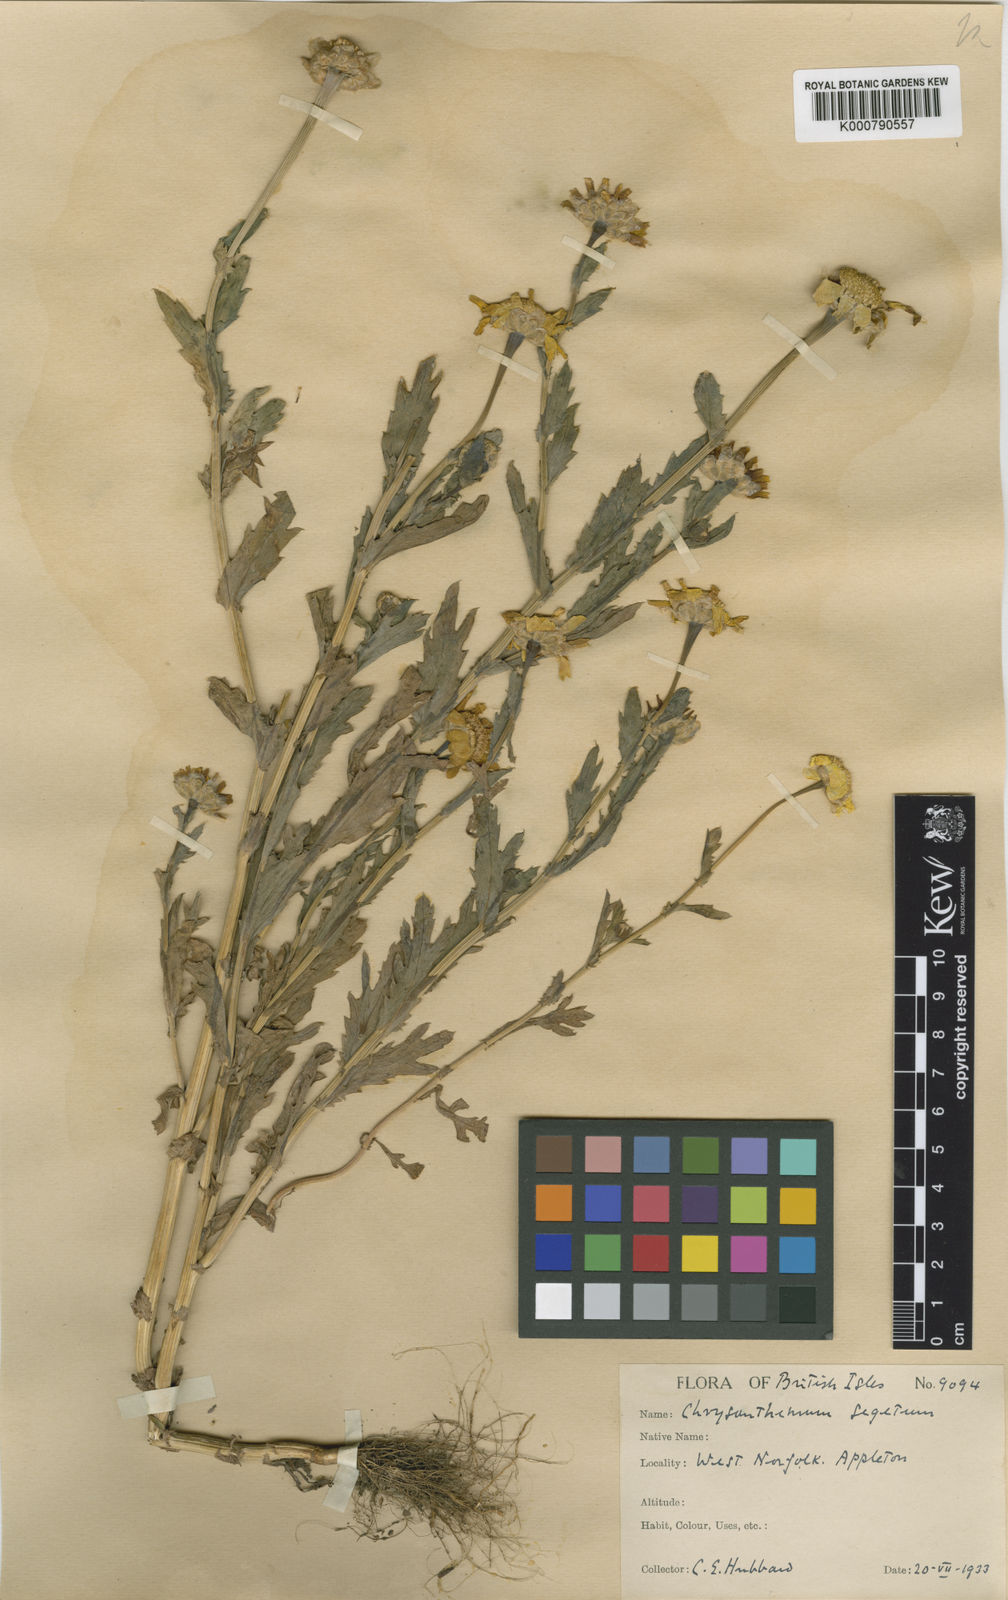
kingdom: Plantae
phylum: Tracheophyta
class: Magnoliopsida
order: Asterales
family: Asteraceae
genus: Glebionis
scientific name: Glebionis
